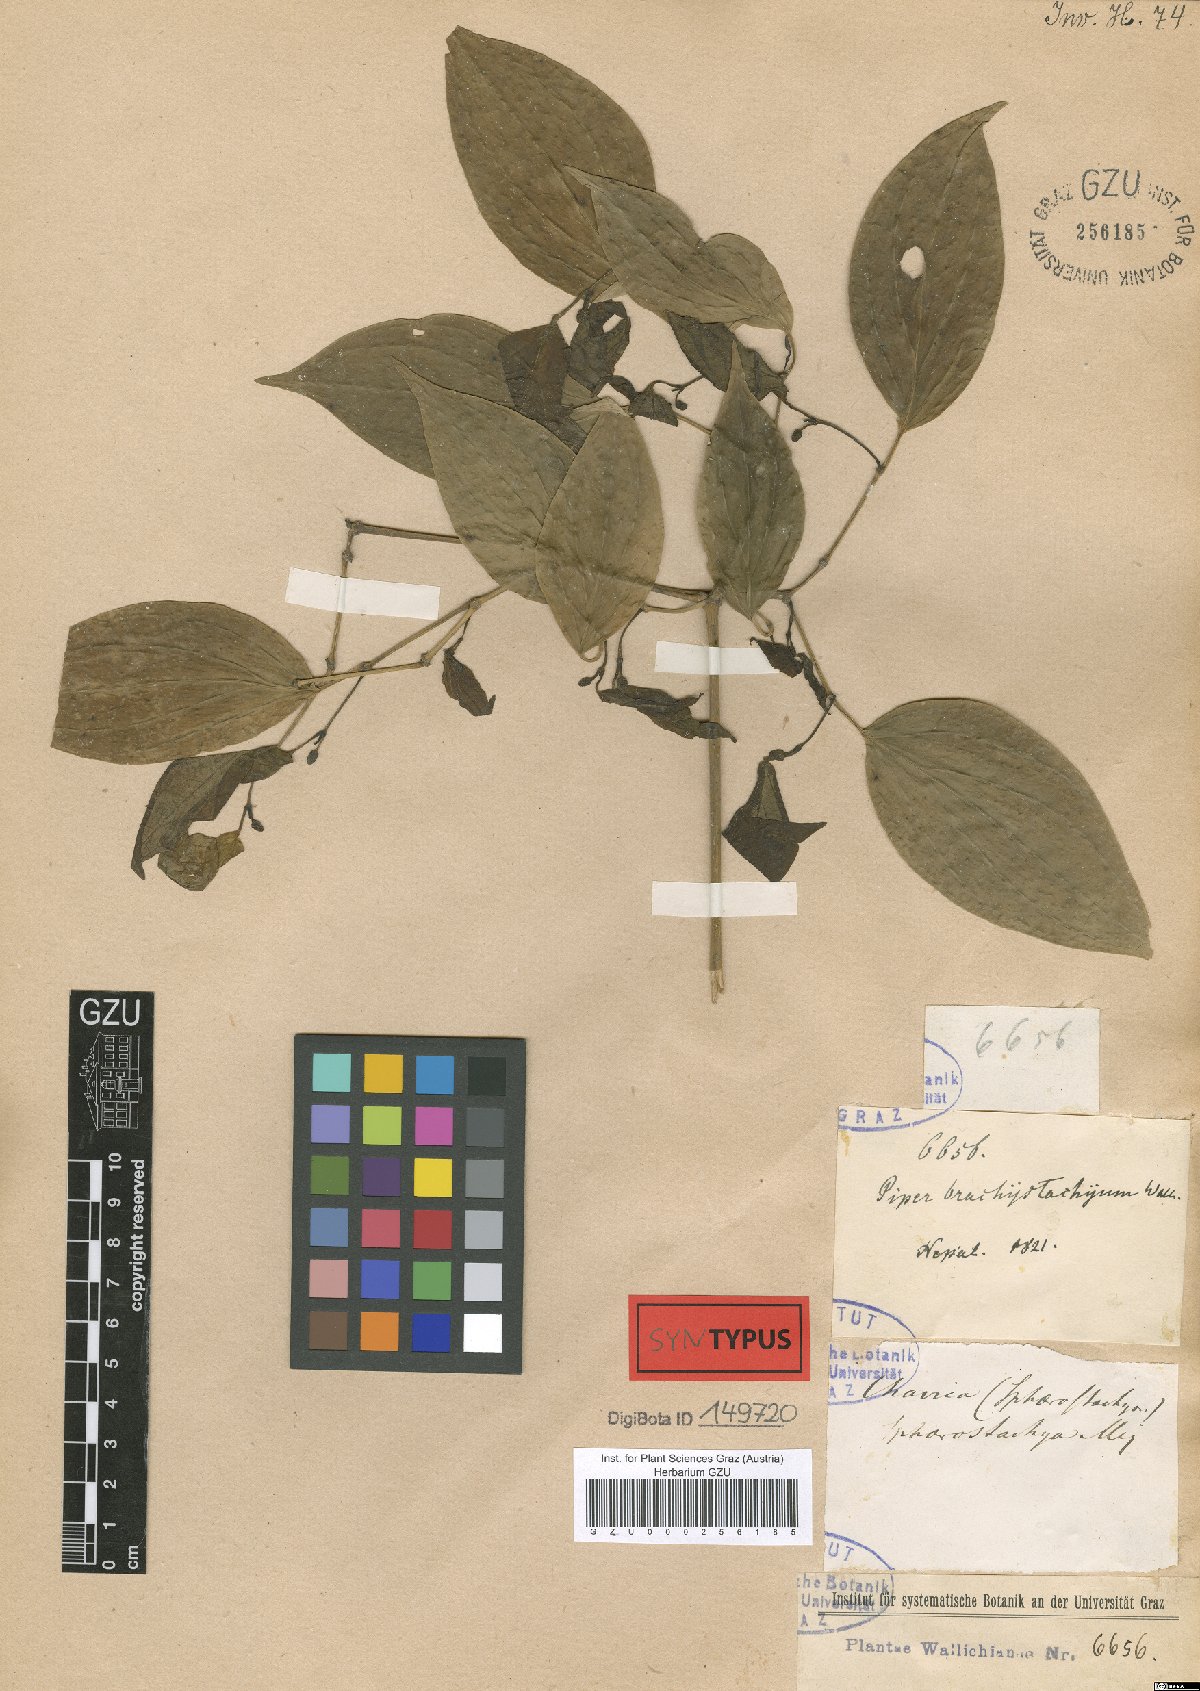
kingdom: Plantae
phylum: Tracheophyta
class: Magnoliopsida
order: Piperales
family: Piperaceae
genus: Piper
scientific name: Piper mullesua
